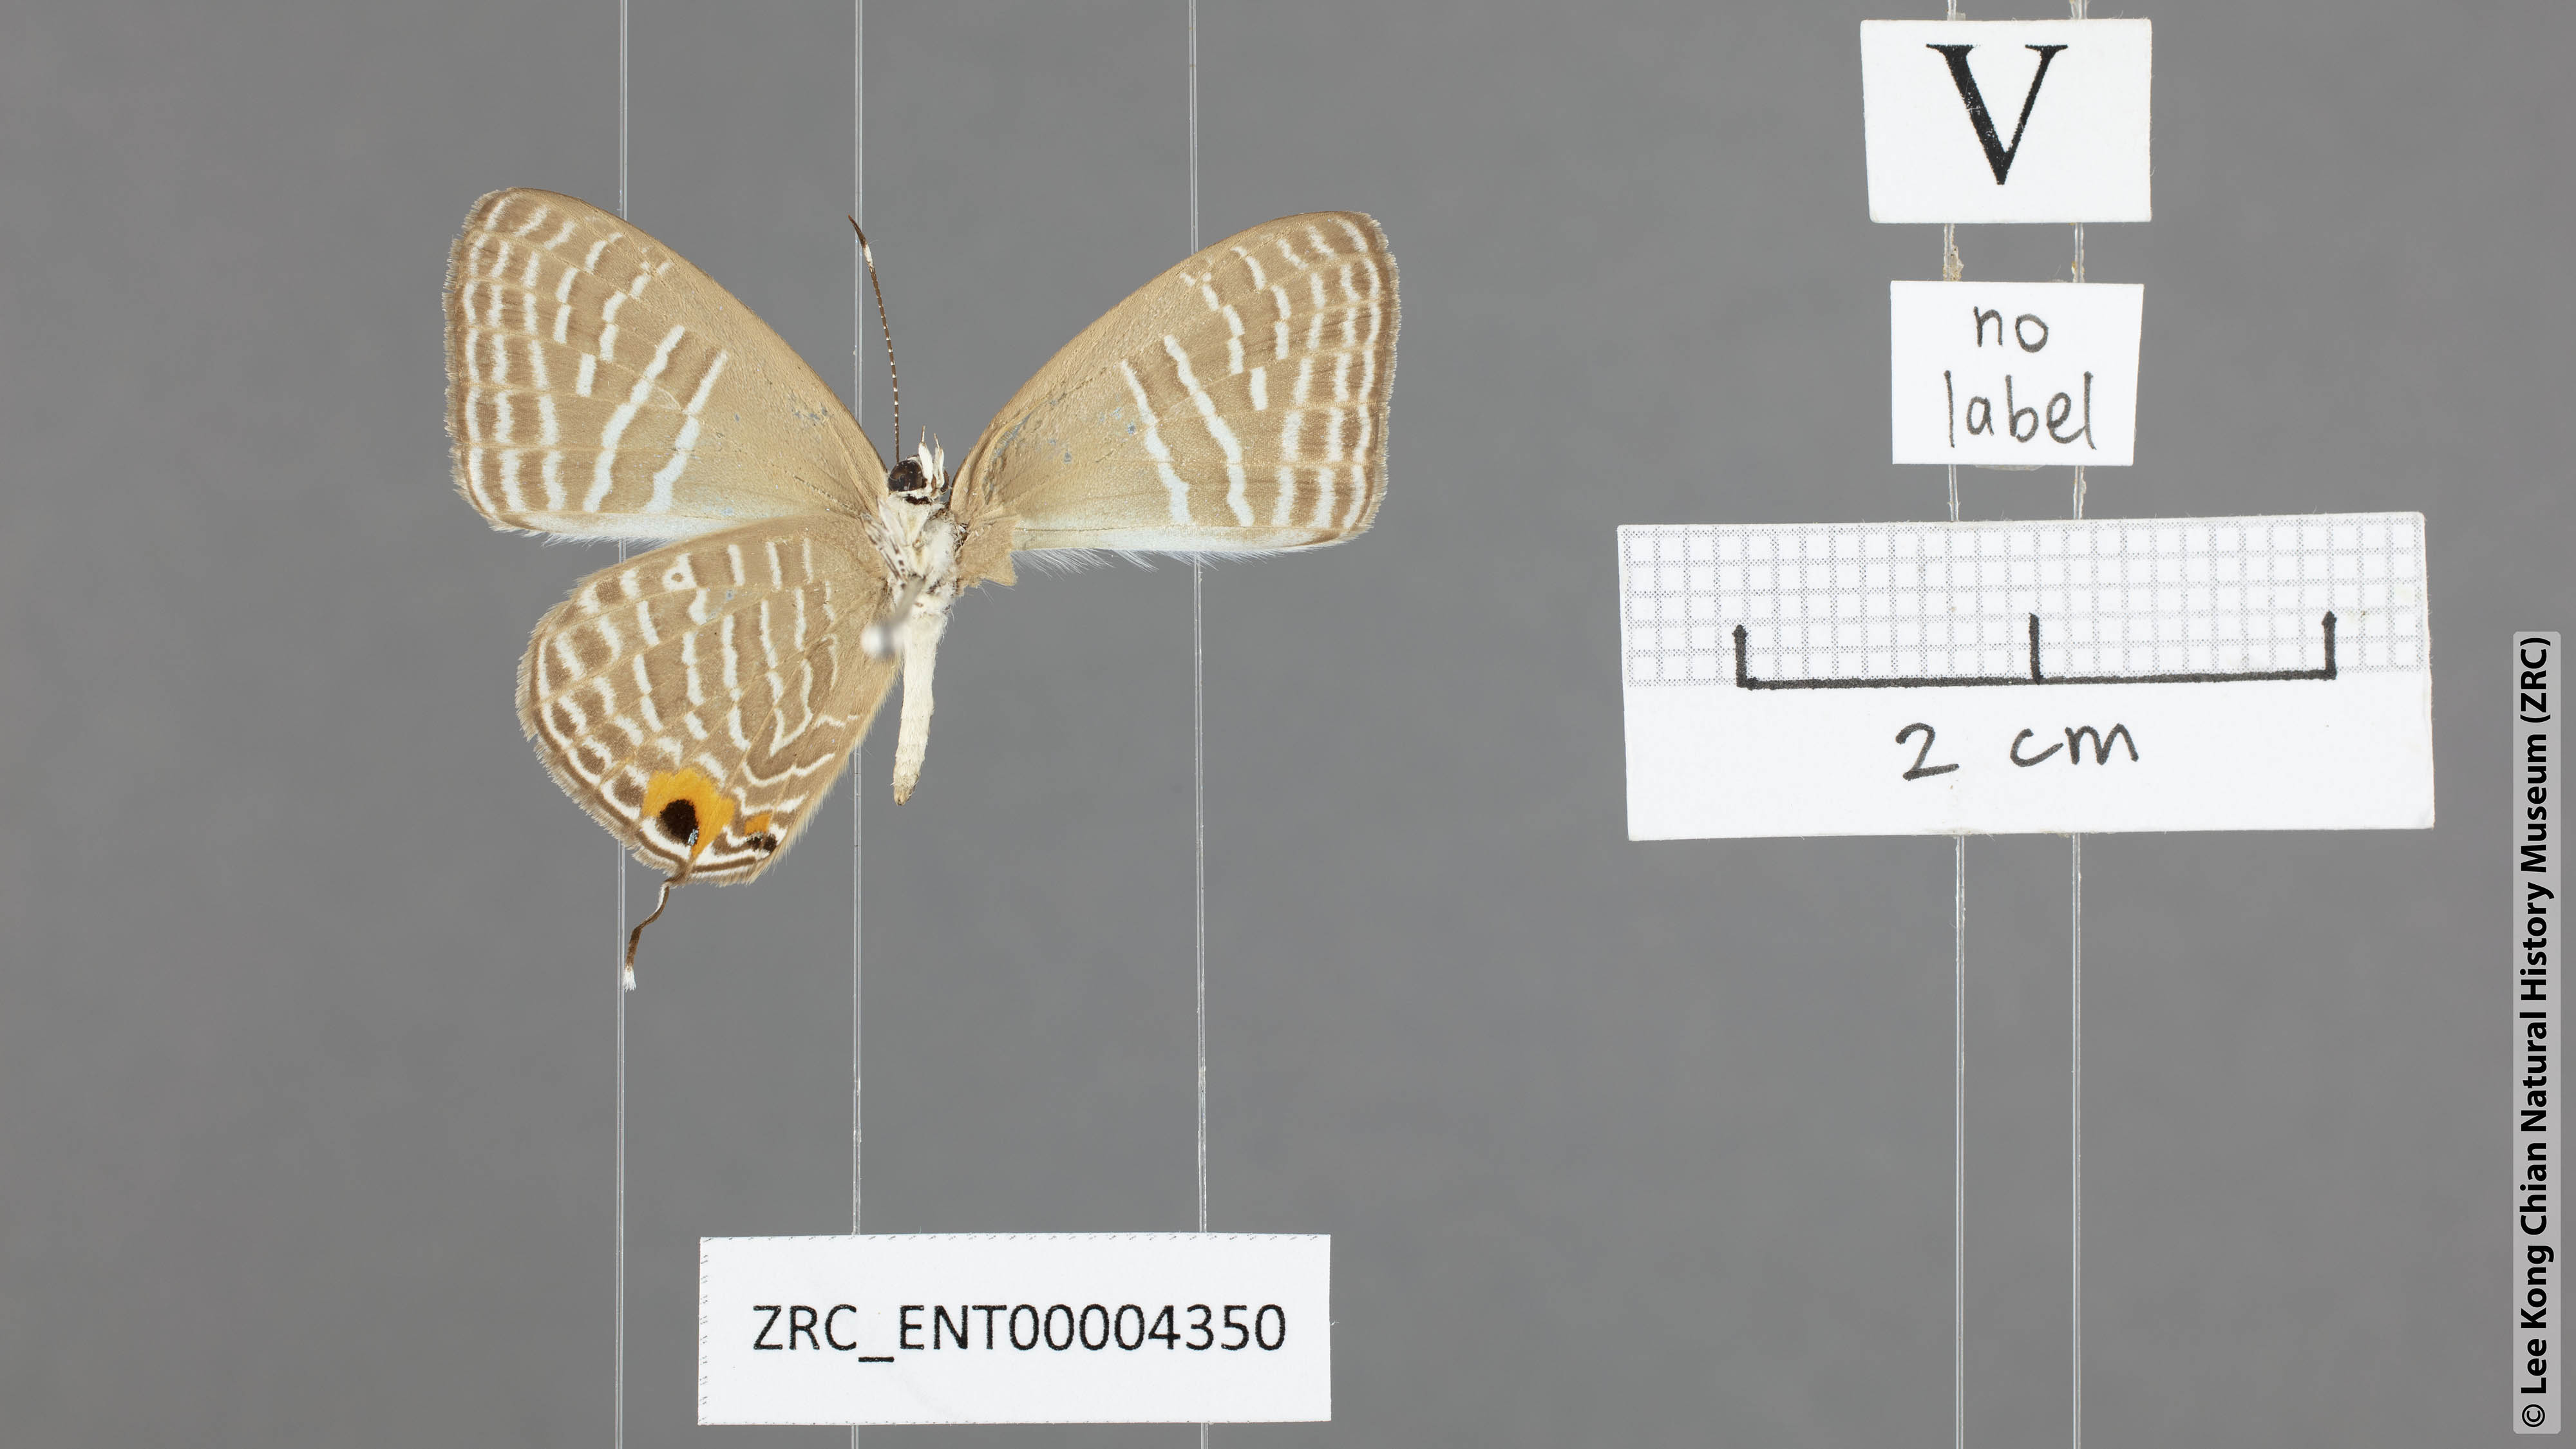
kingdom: Animalia
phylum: Arthropoda
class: Insecta
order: Lepidoptera
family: Lycaenidae
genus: Jamides
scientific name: Jamides
